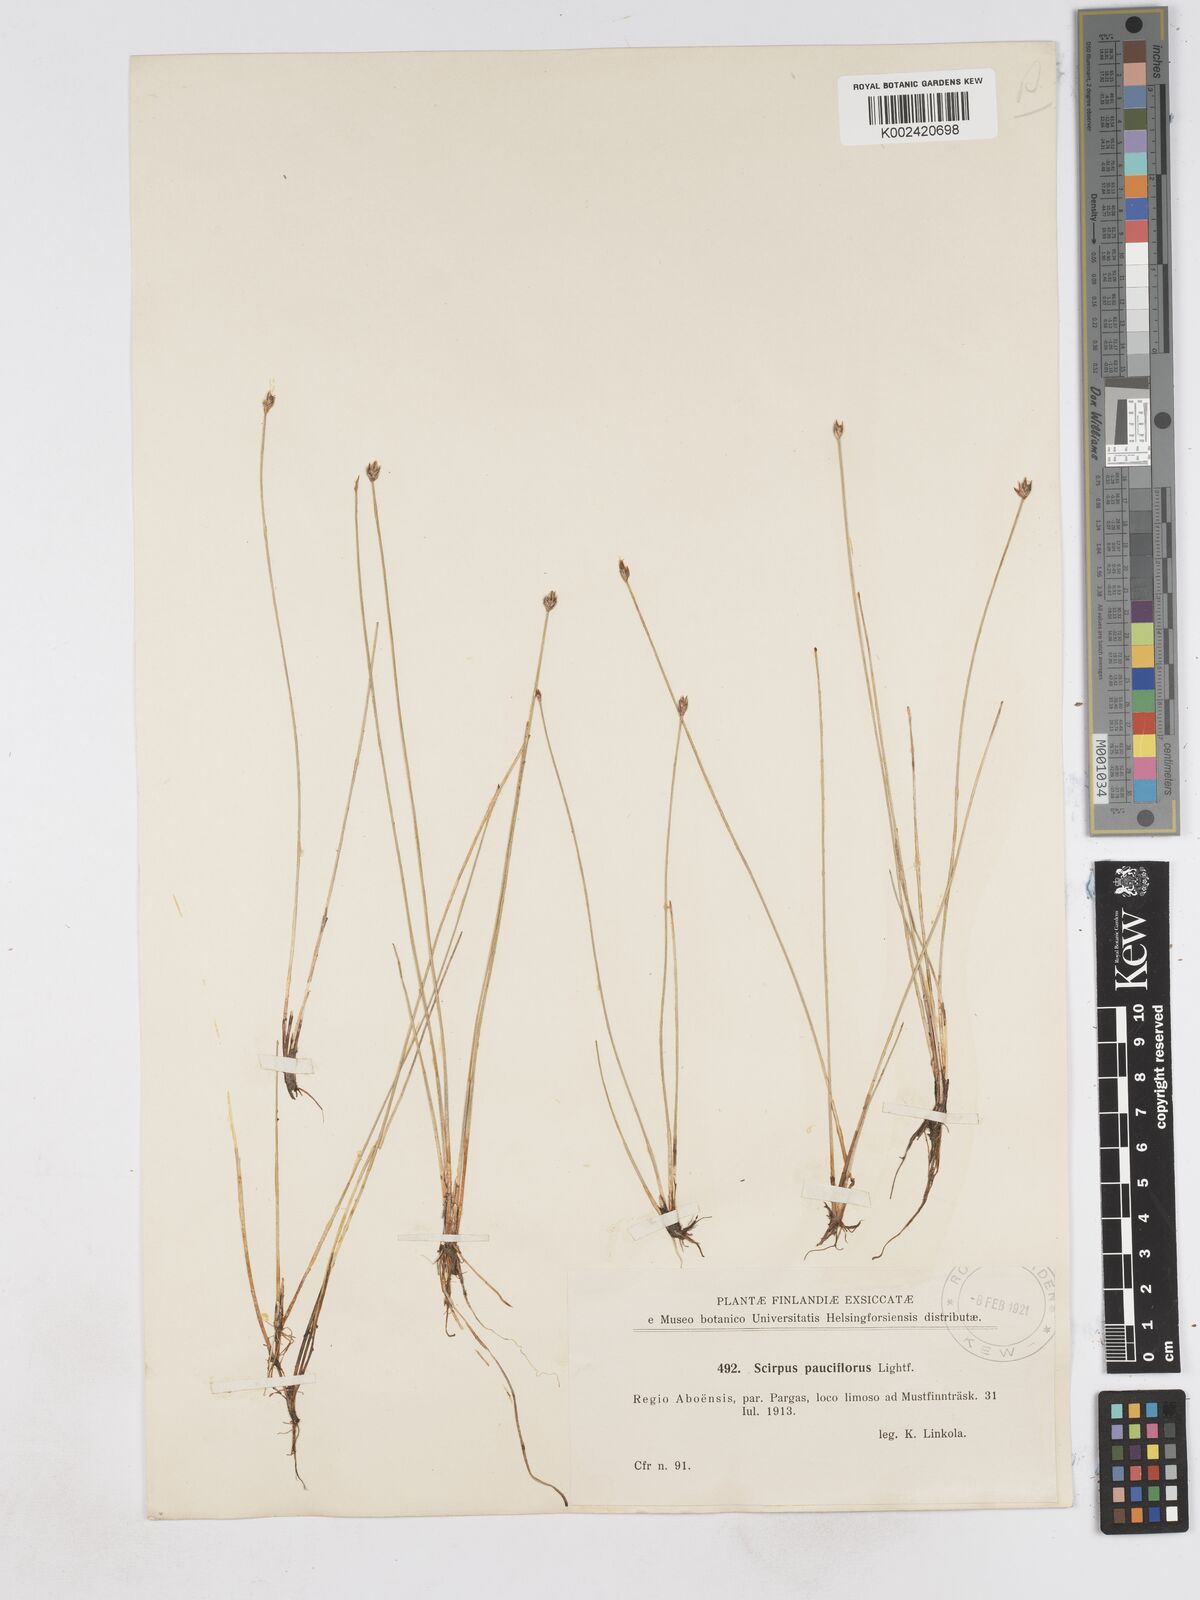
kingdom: Plantae
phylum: Tracheophyta
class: Liliopsida
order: Poales
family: Cyperaceae
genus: Eleocharis
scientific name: Eleocharis quinqueflora
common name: Few-flowered spike-rush
